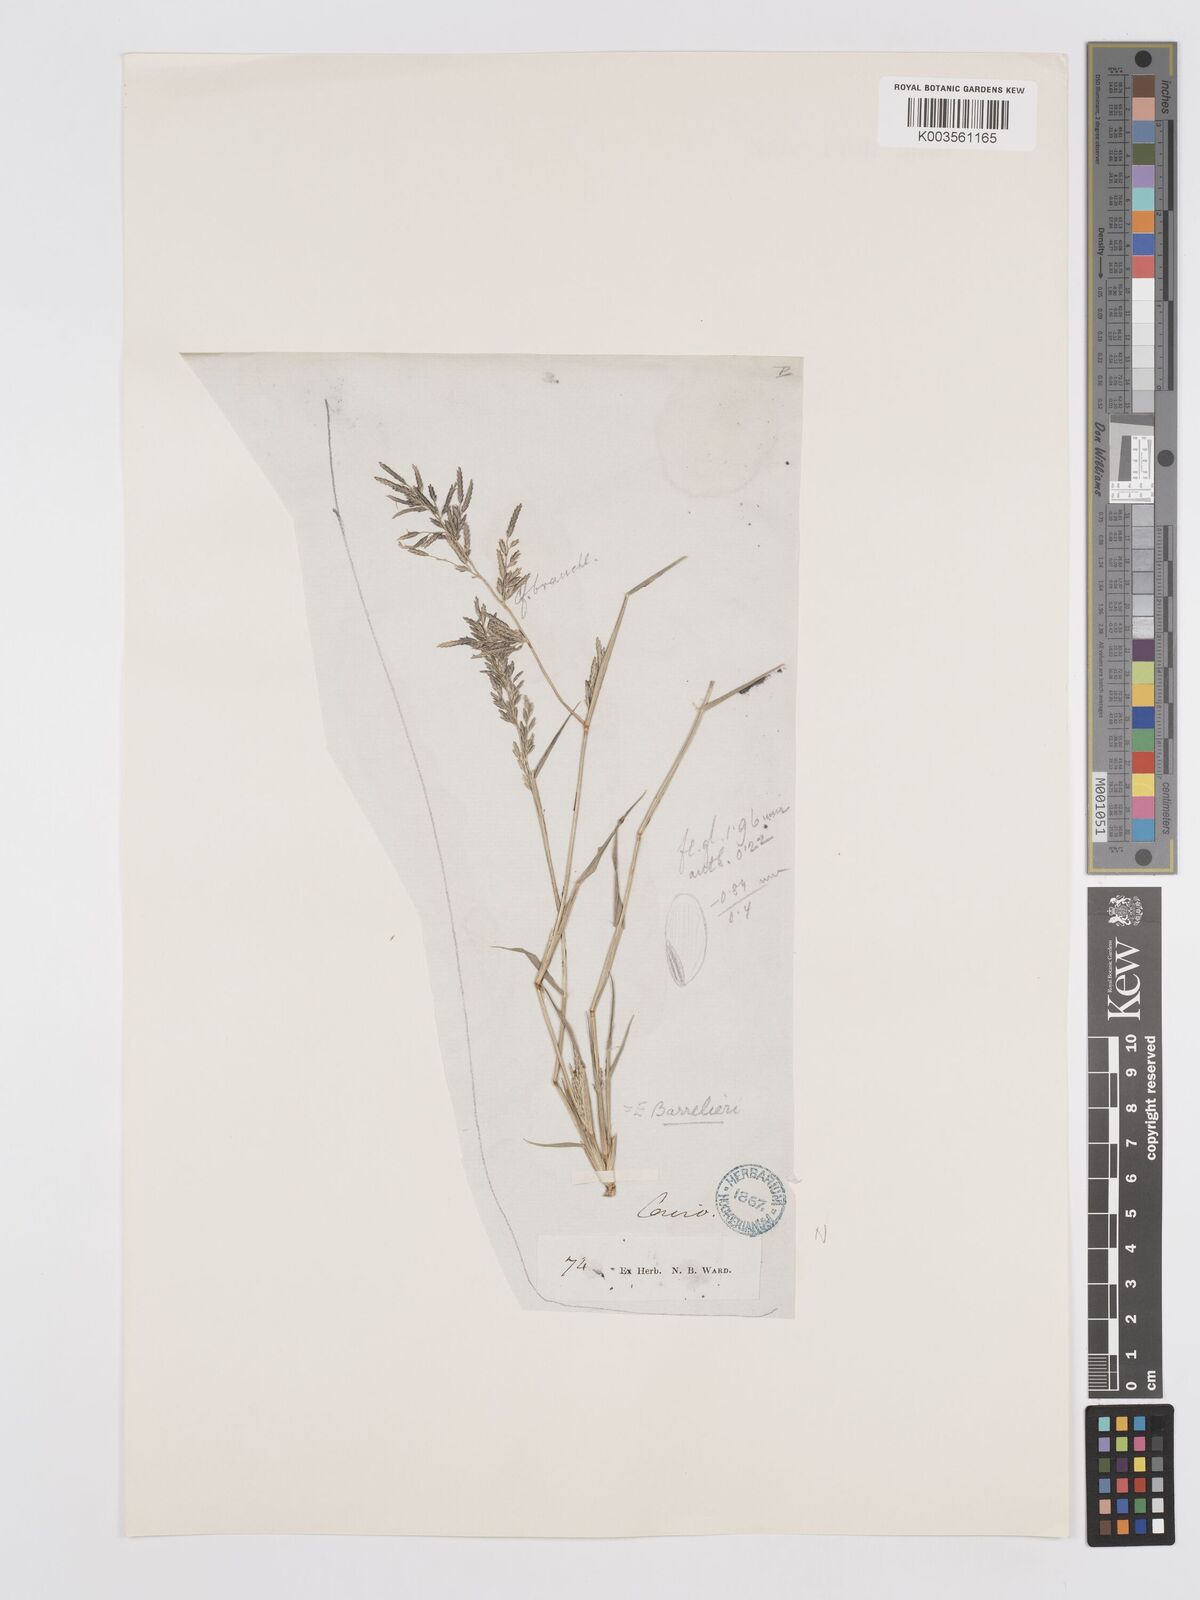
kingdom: Plantae
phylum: Tracheophyta
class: Liliopsida
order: Poales
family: Poaceae
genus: Eragrostis
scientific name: Eragrostis barrelieri
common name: Mediterranean lovegrass
